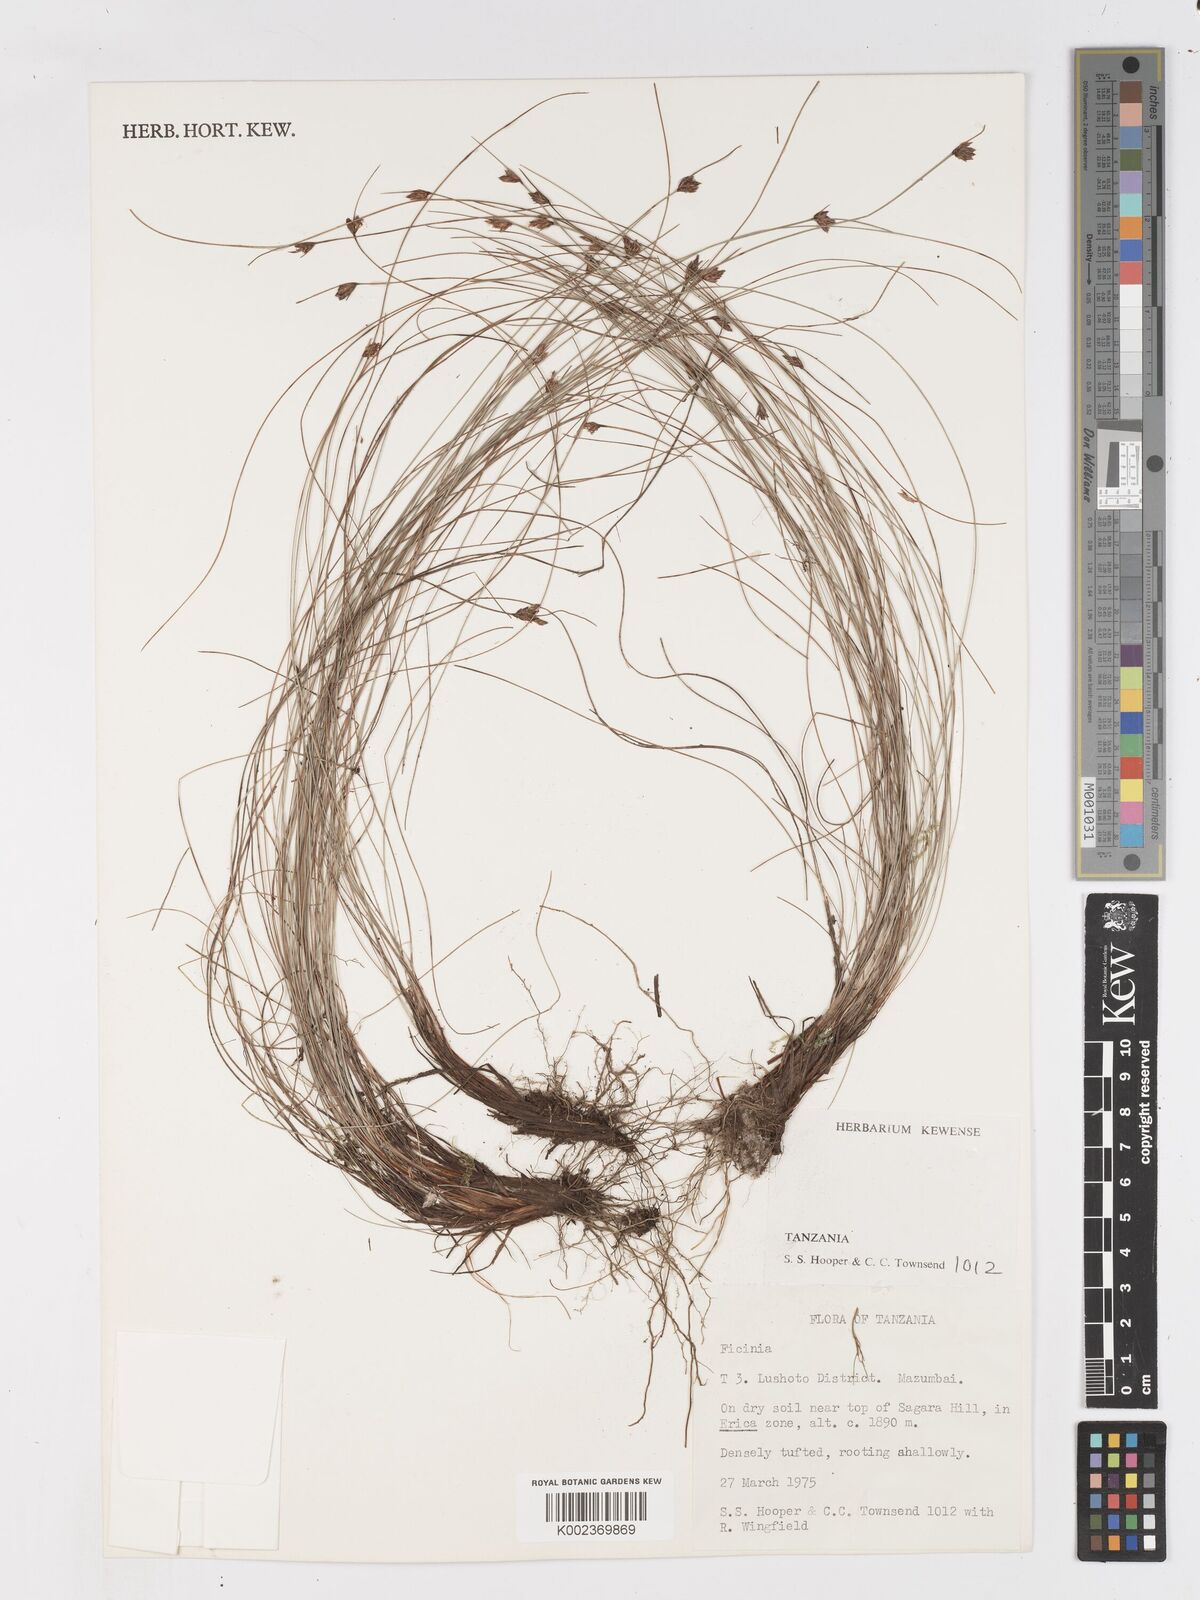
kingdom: Plantae
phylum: Tracheophyta
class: Liliopsida
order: Poales
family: Cyperaceae
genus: Ficinia
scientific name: Ficinia filiformis
